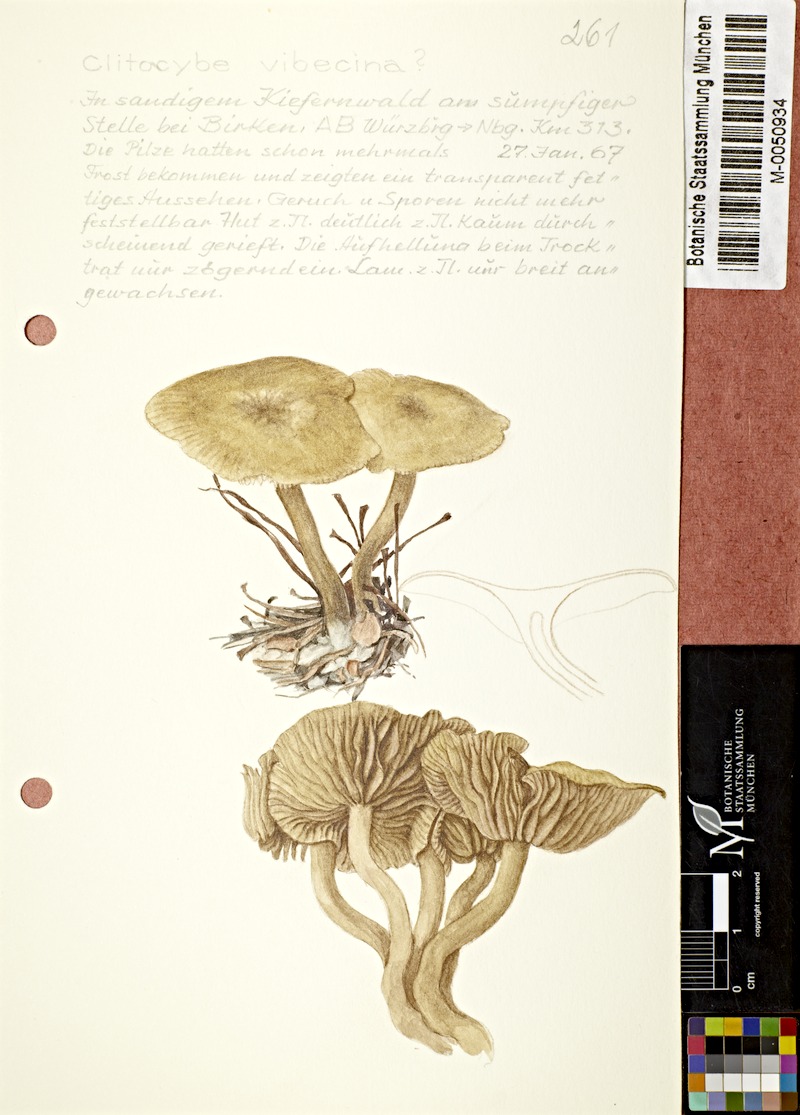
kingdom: Fungi
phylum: Basidiomycota
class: Agaricomycetes
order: Agaricales
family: Tricholomataceae
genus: Clitocybe
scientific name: Clitocybe vibecina
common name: Mealy funnel
